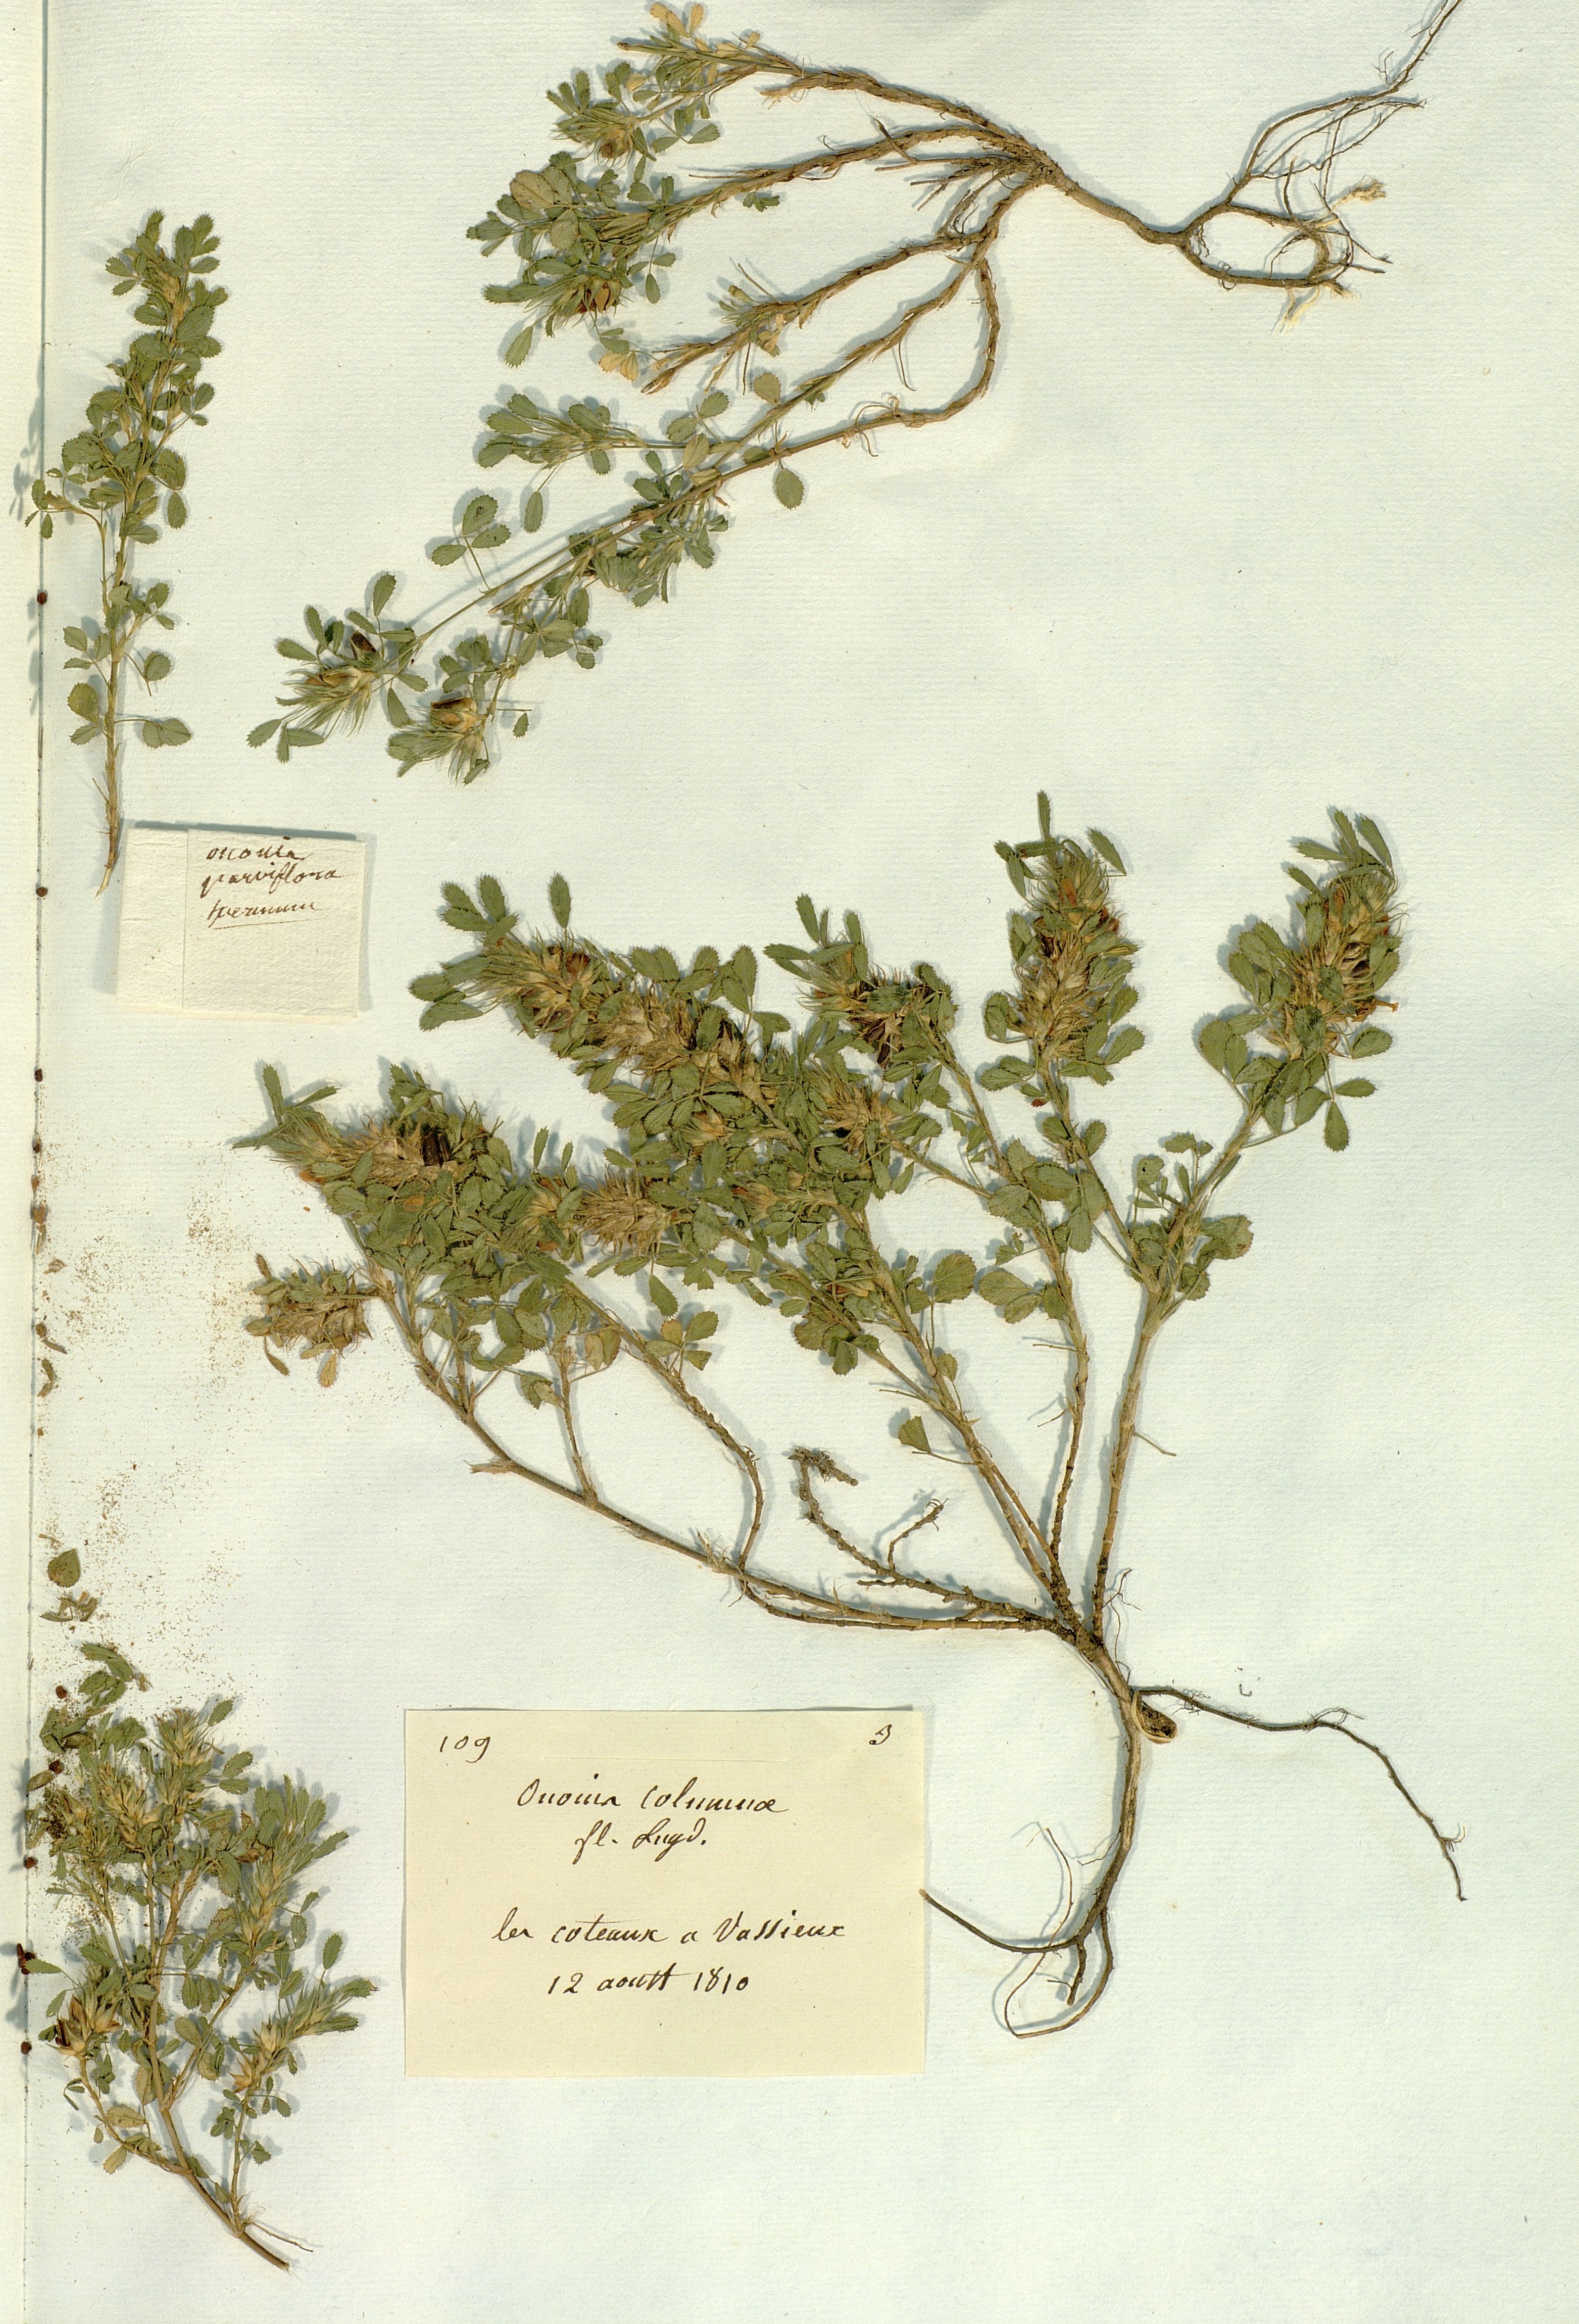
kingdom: Plantae
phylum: Tracheophyta
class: Magnoliopsida
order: Fabales
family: Fabaceae
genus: Ononis
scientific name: Ononis pusilla
